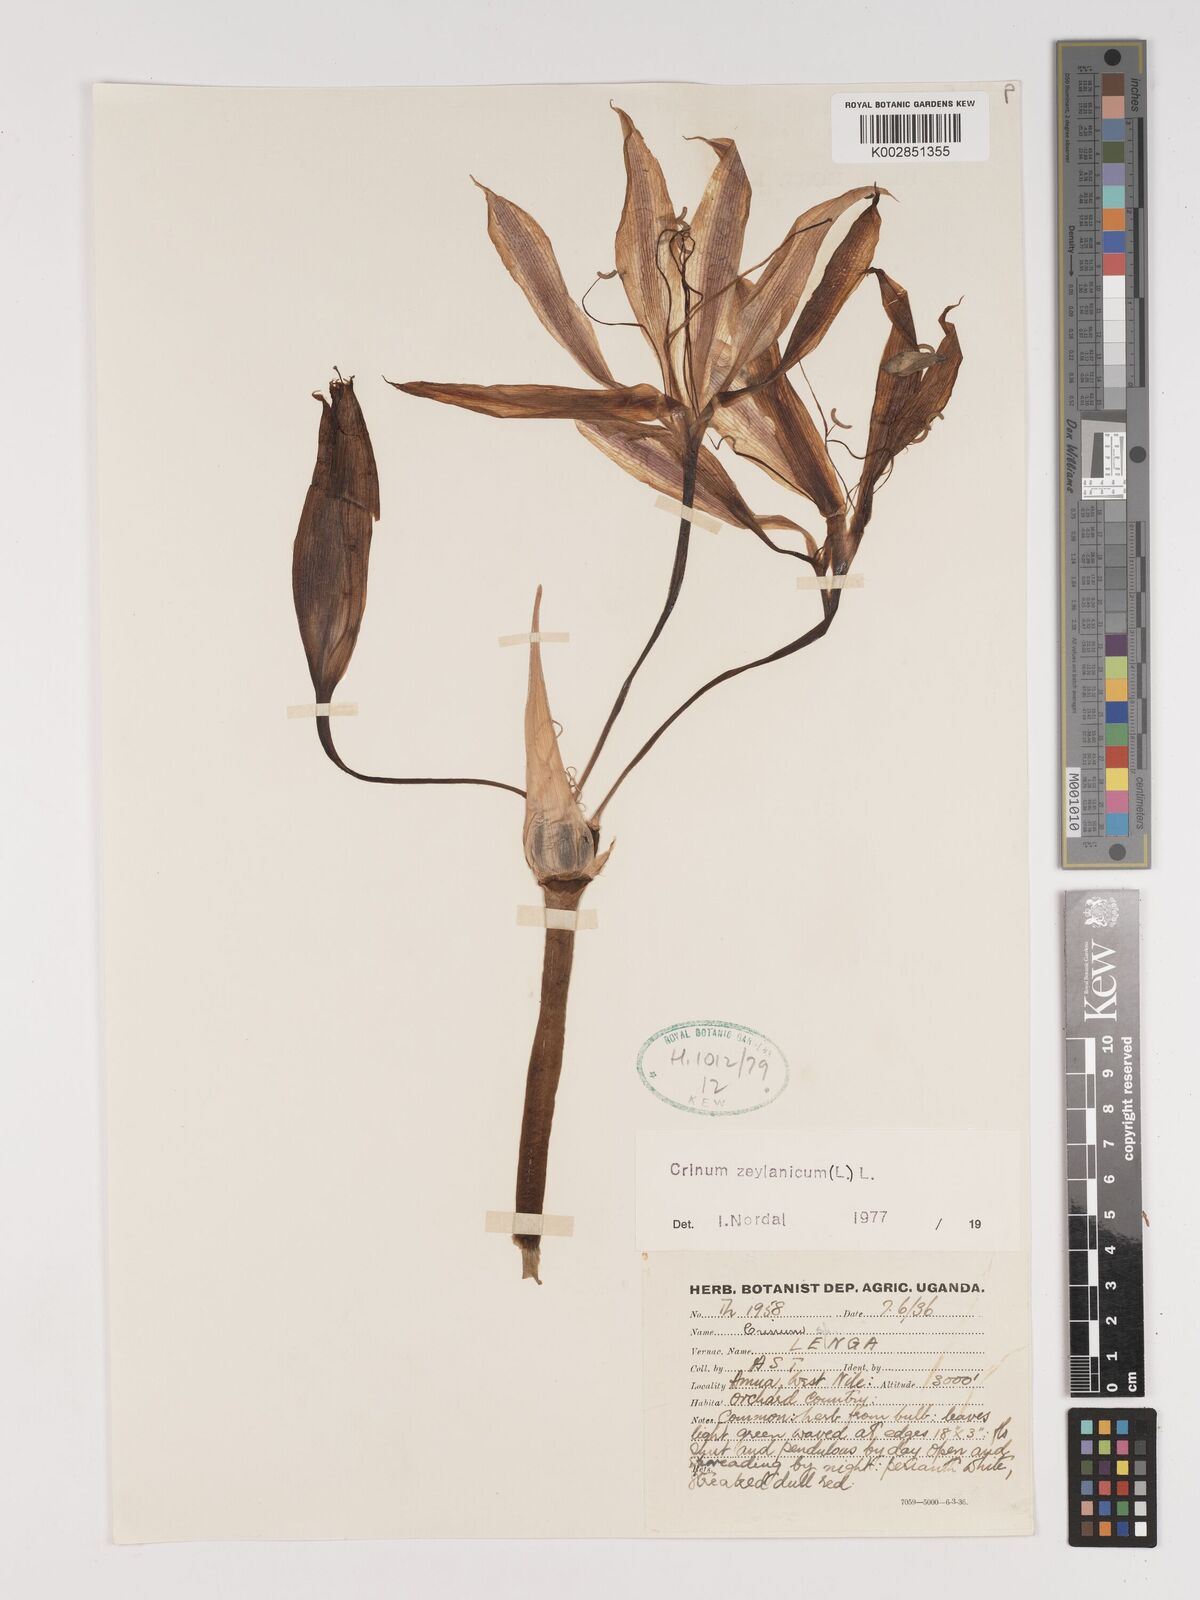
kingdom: Plantae
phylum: Tracheophyta
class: Liliopsida
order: Asparagales
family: Amaryllidaceae
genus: Crinum
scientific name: Crinum zeylanicum
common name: Ceylon swamplily
